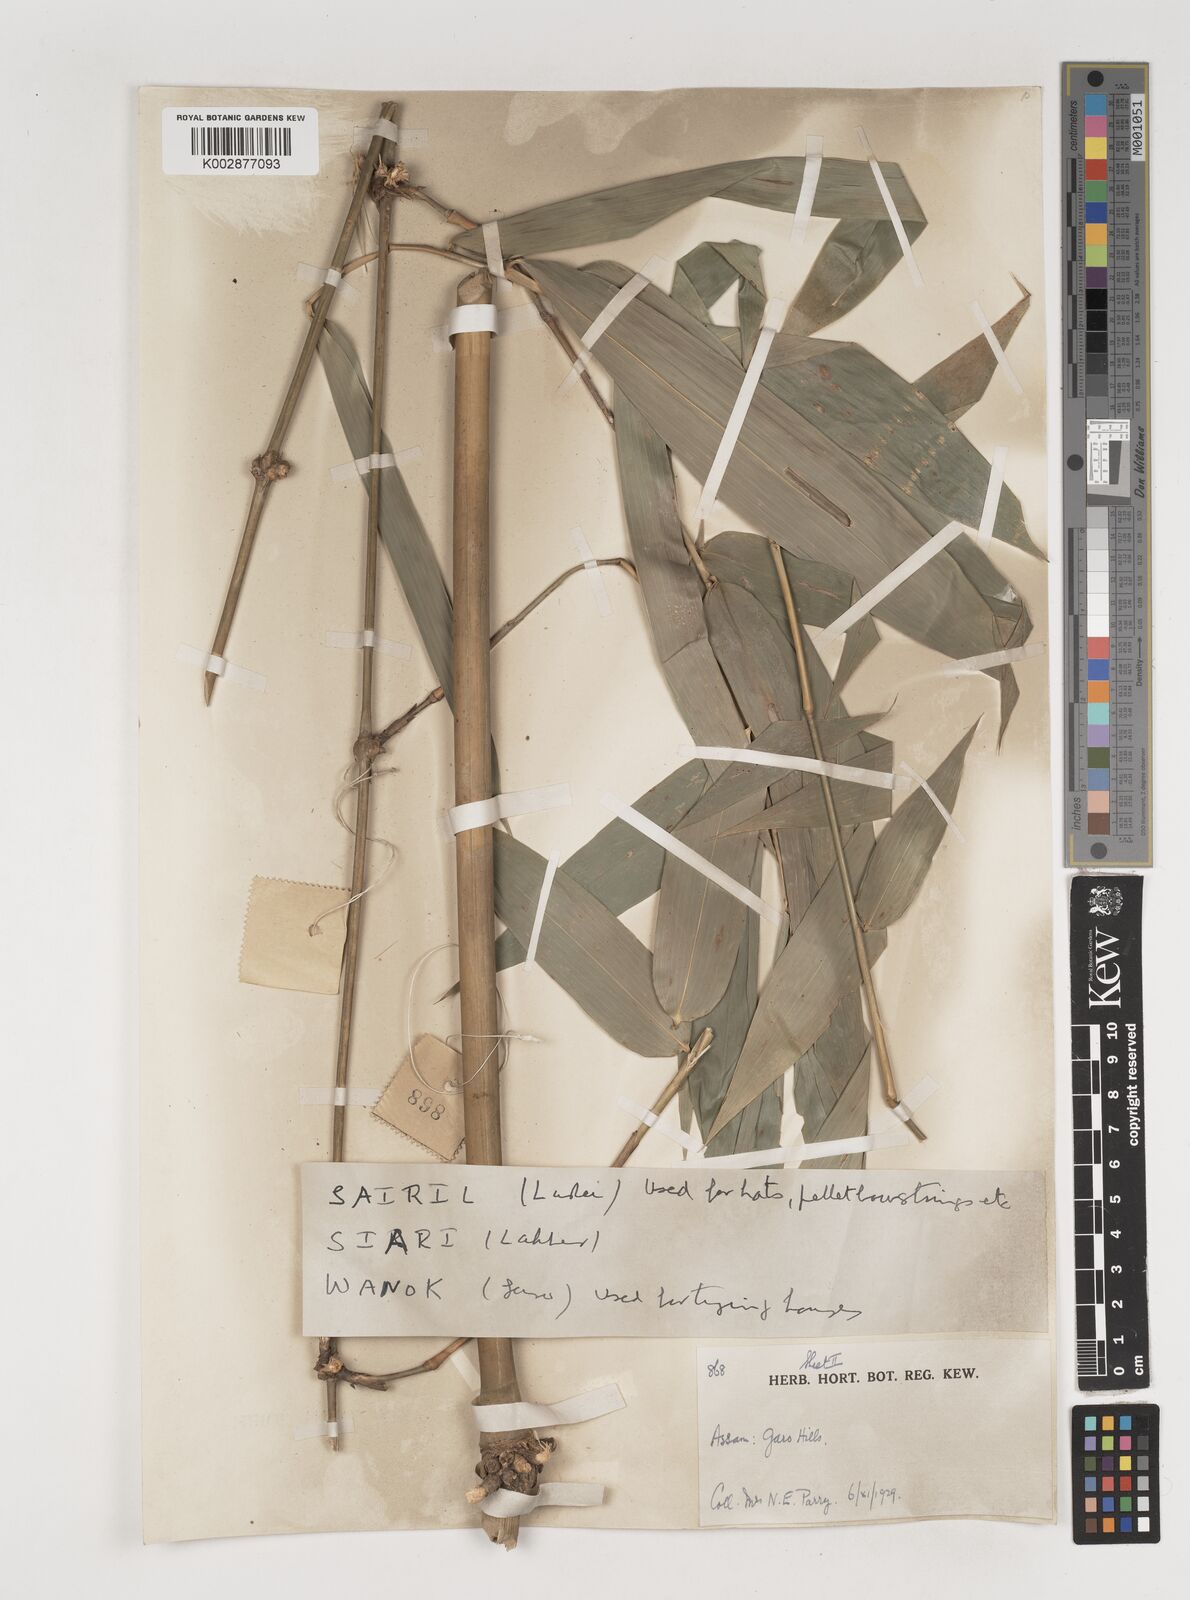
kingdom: Plantae
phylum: Tracheophyta
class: Liliopsida
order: Poales
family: Poaceae
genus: Bambusa
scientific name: Bambusa
